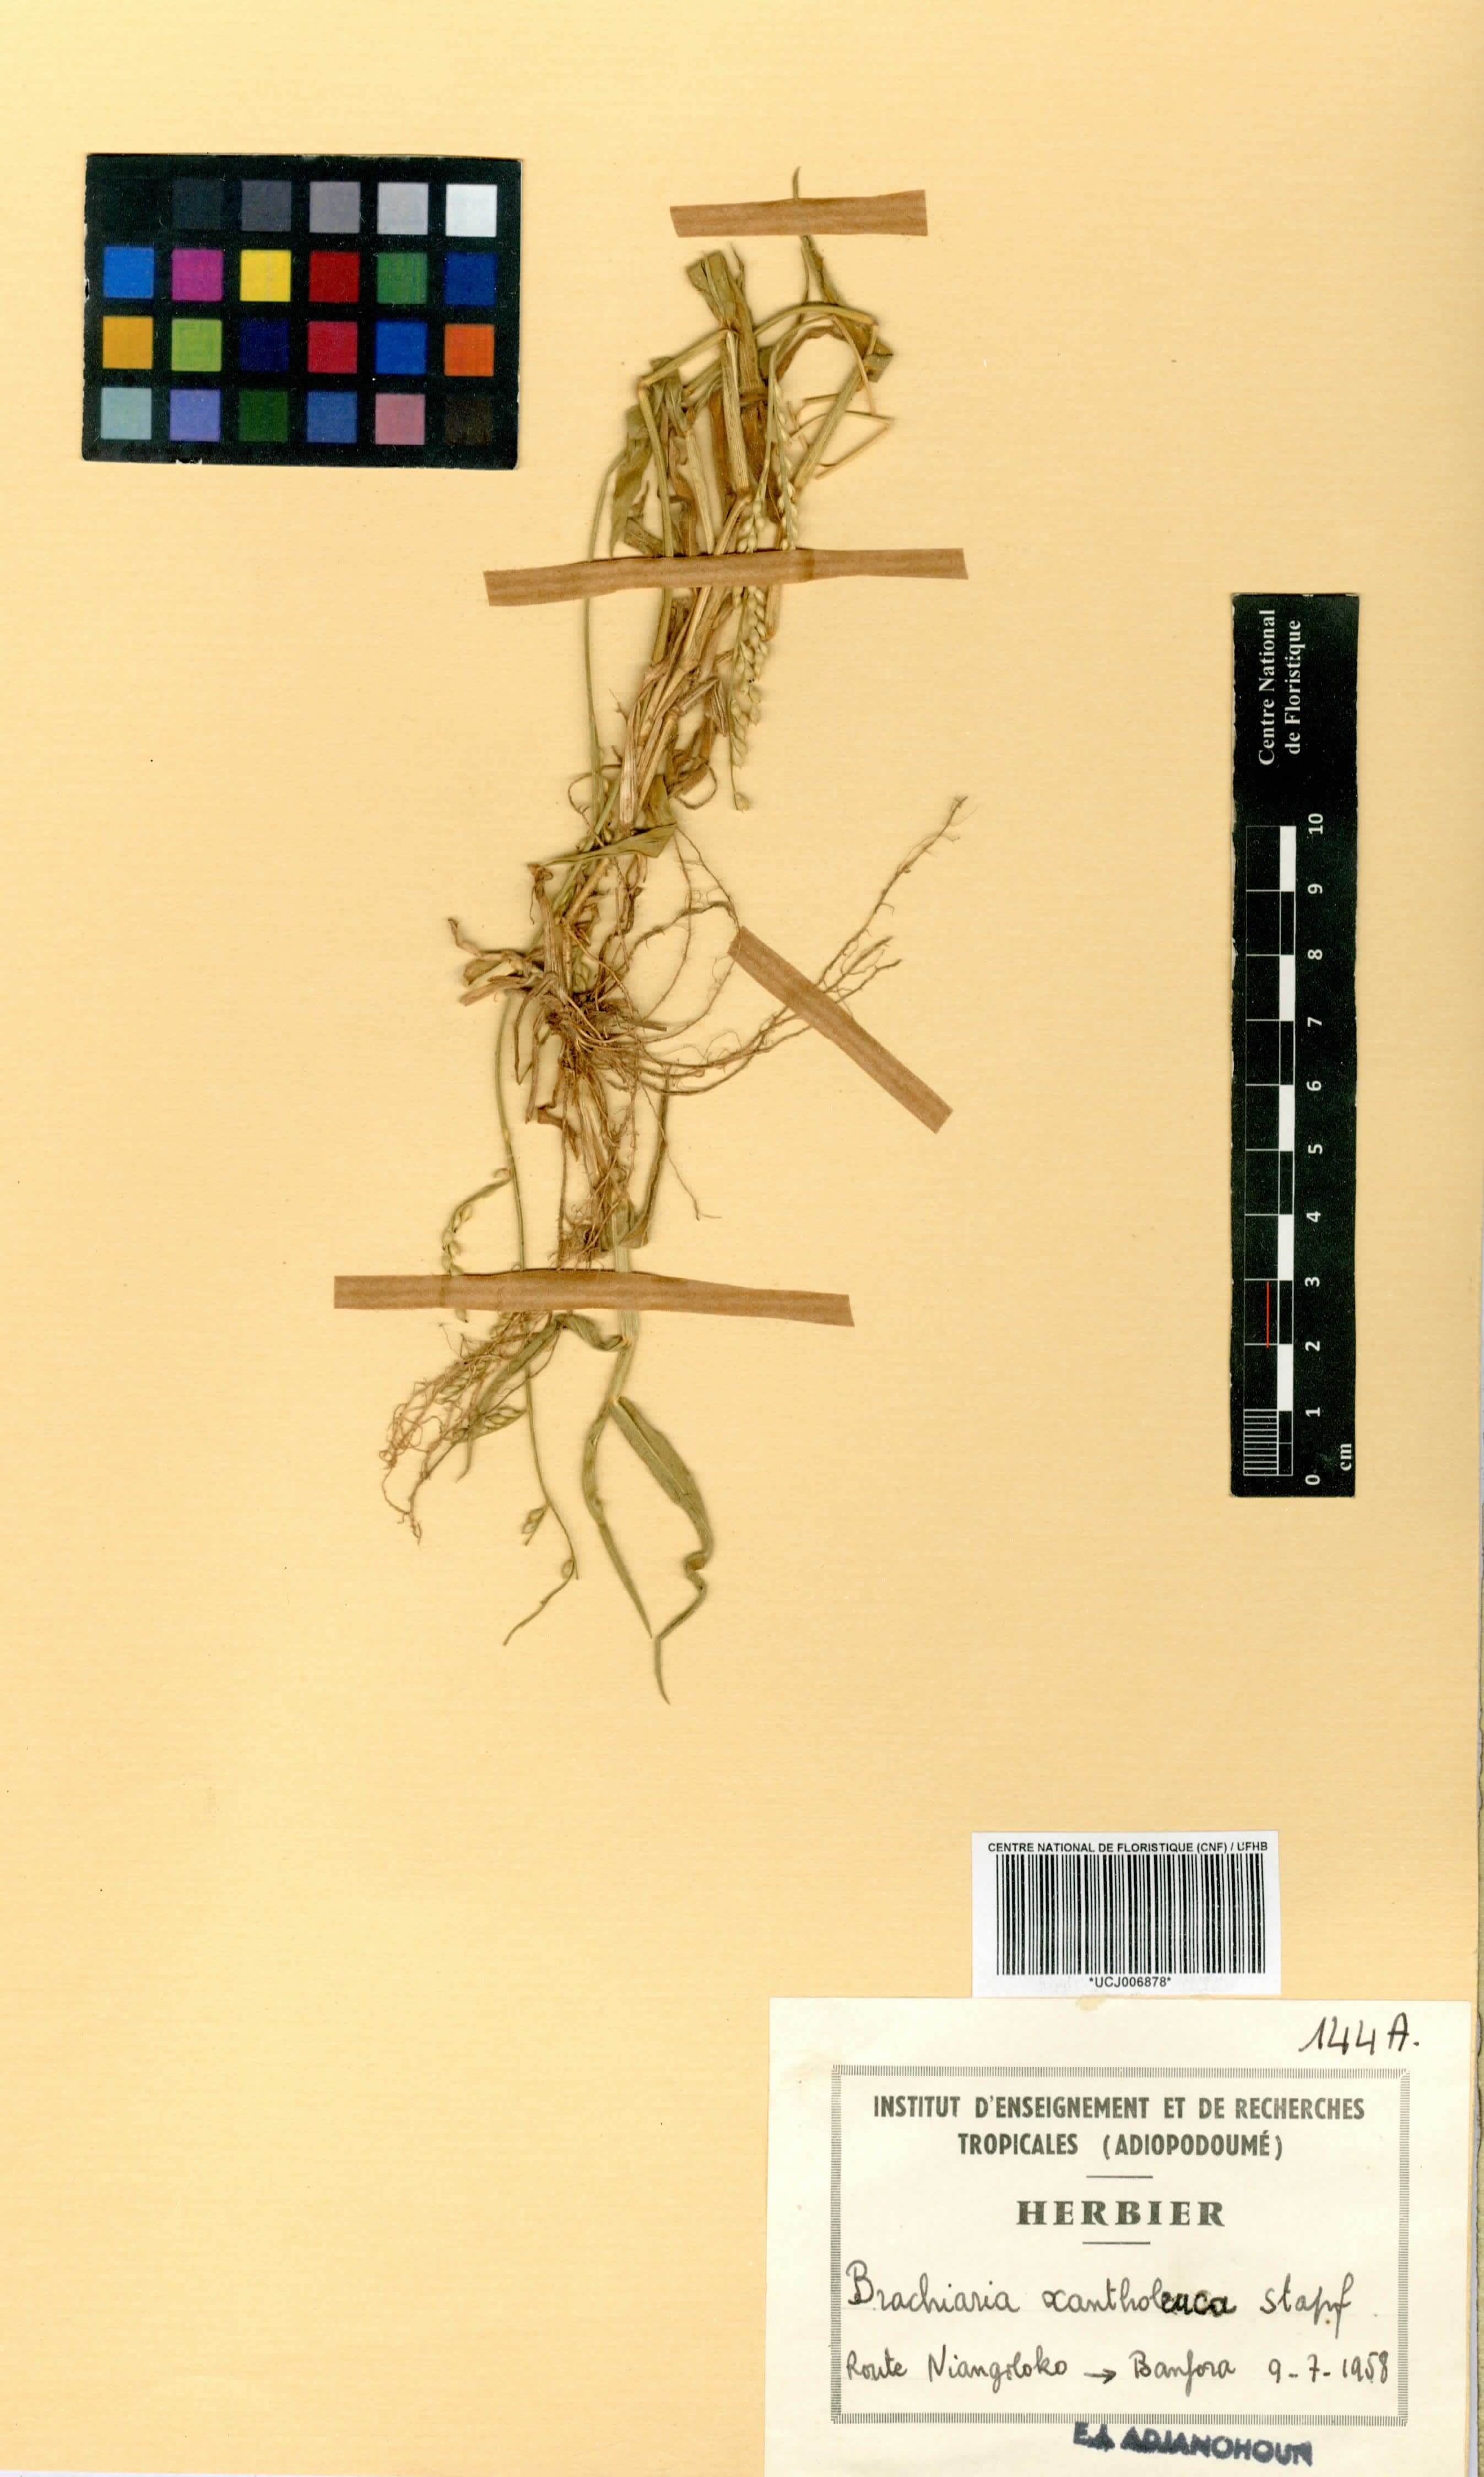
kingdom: Plantae
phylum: Tracheophyta
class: Liliopsida
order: Poales
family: Poaceae
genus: Urochloa
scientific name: Urochloa xantholeuca
